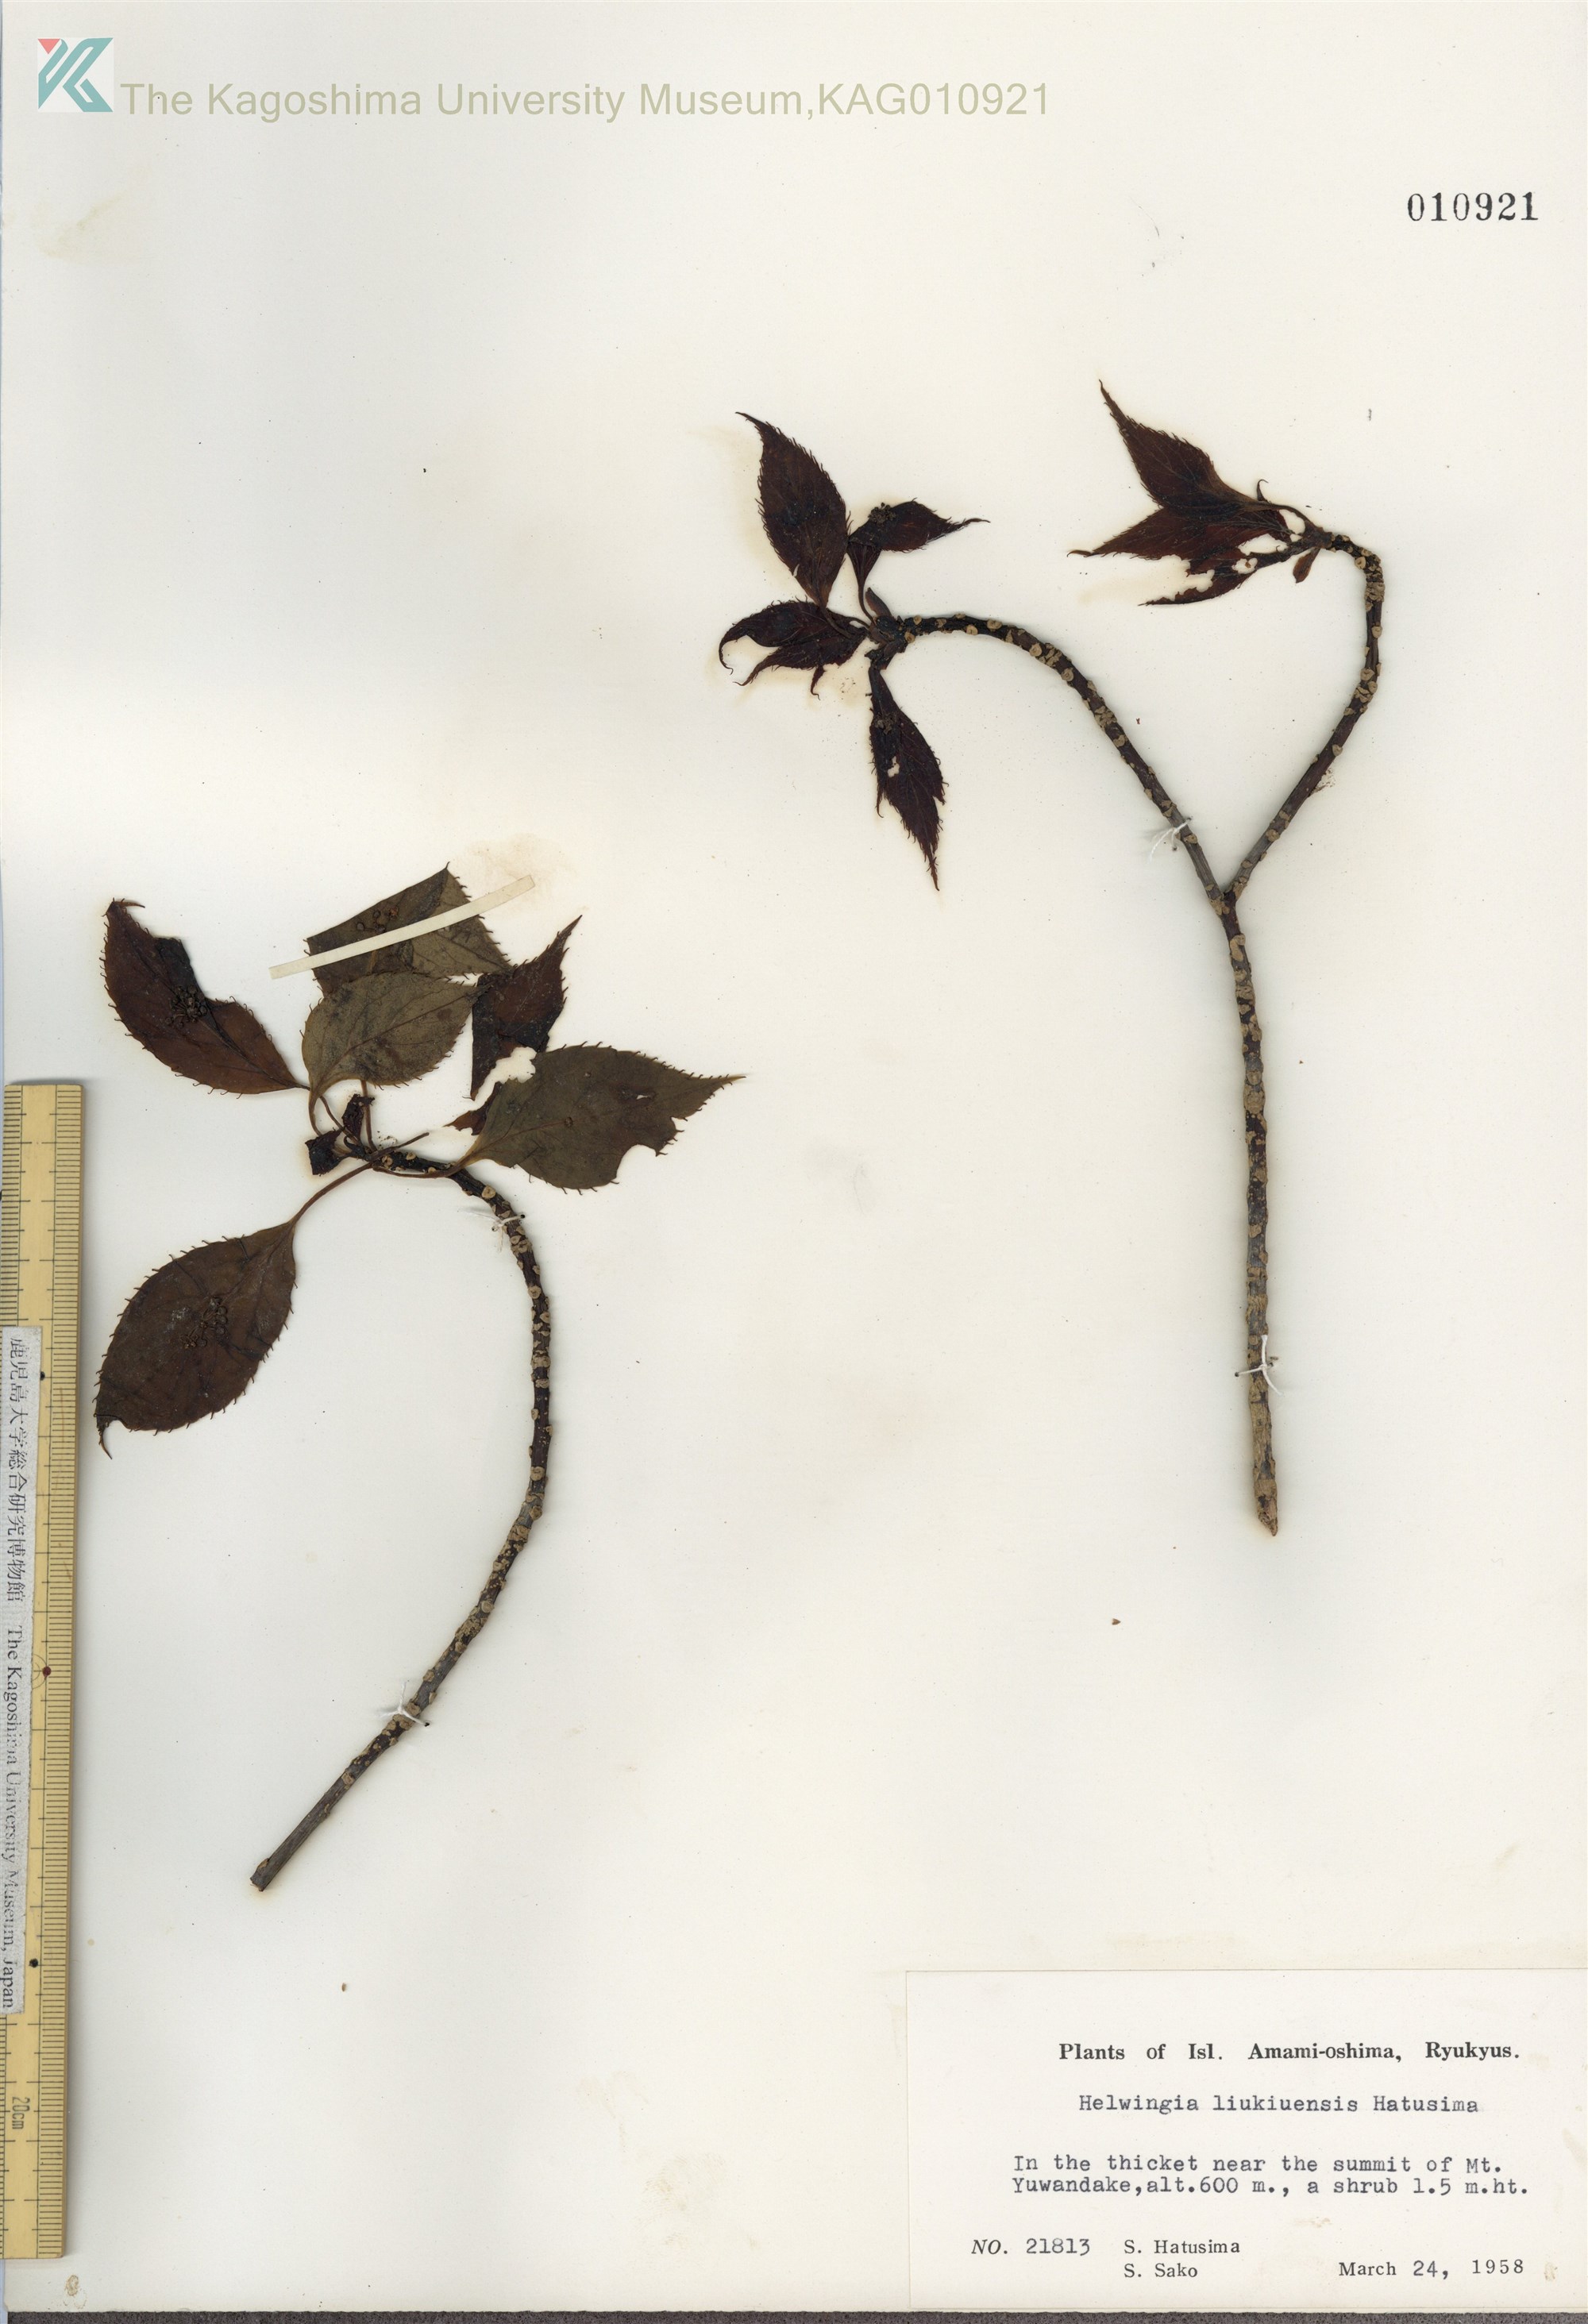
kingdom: Plantae
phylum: Tracheophyta
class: Magnoliopsida
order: Aquifoliales
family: Helwingiaceae
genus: Helwingia
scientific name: Helwingia japonica
